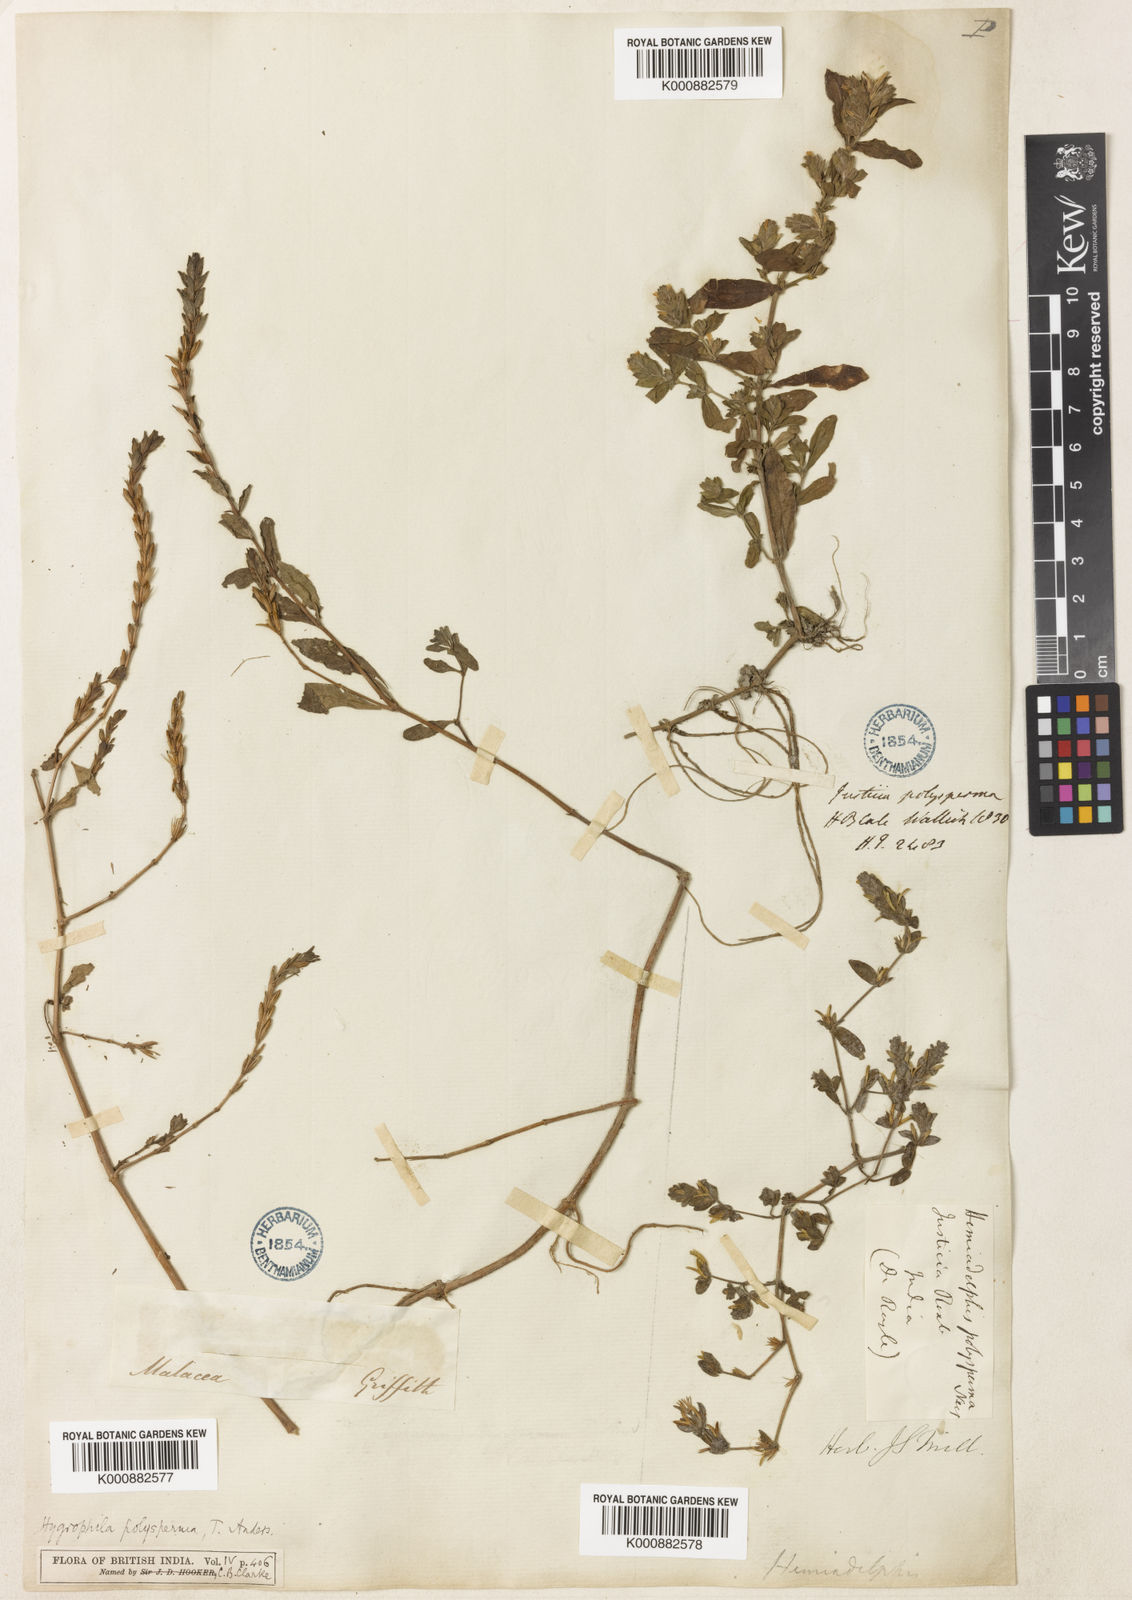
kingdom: Plantae
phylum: Tracheophyta
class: Magnoliopsida
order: Lamiales
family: Acanthaceae
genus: Hygrophila
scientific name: Hygrophila polysperma
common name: Indian swampweed
